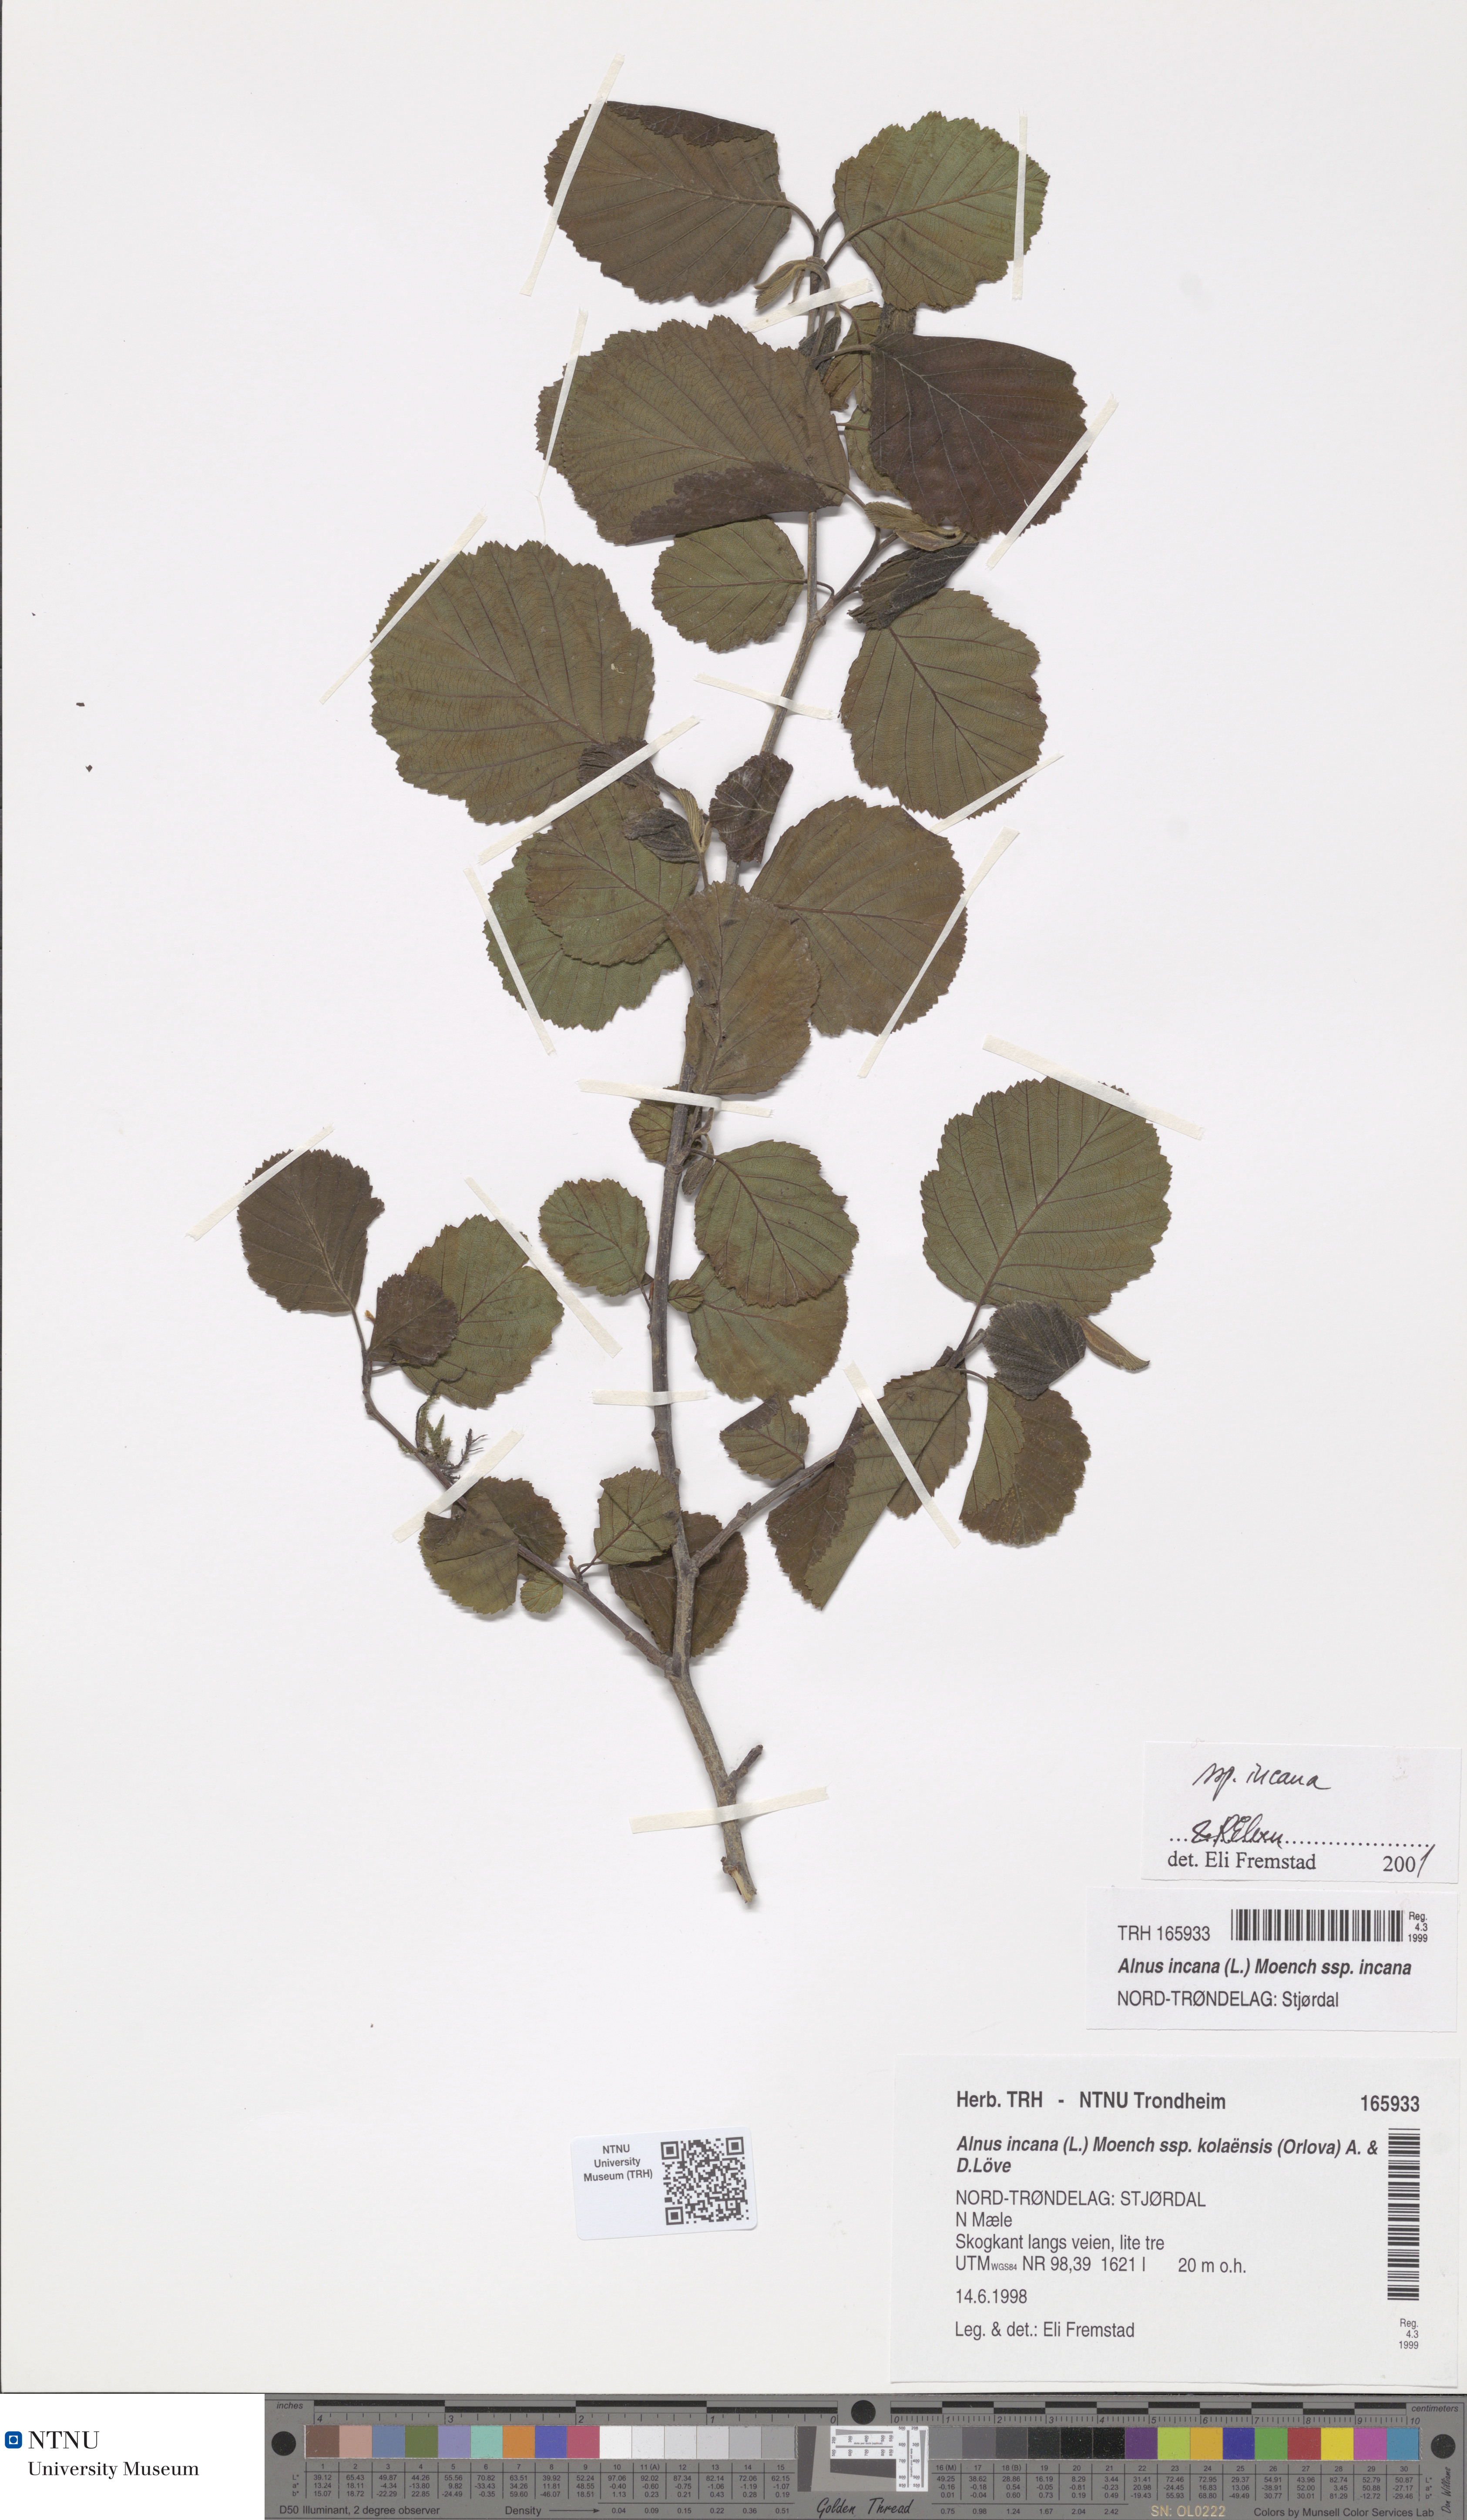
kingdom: Plantae
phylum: Tracheophyta
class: Magnoliopsida
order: Fagales
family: Betulaceae
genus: Alnus
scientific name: Alnus incana
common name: Grey alder
